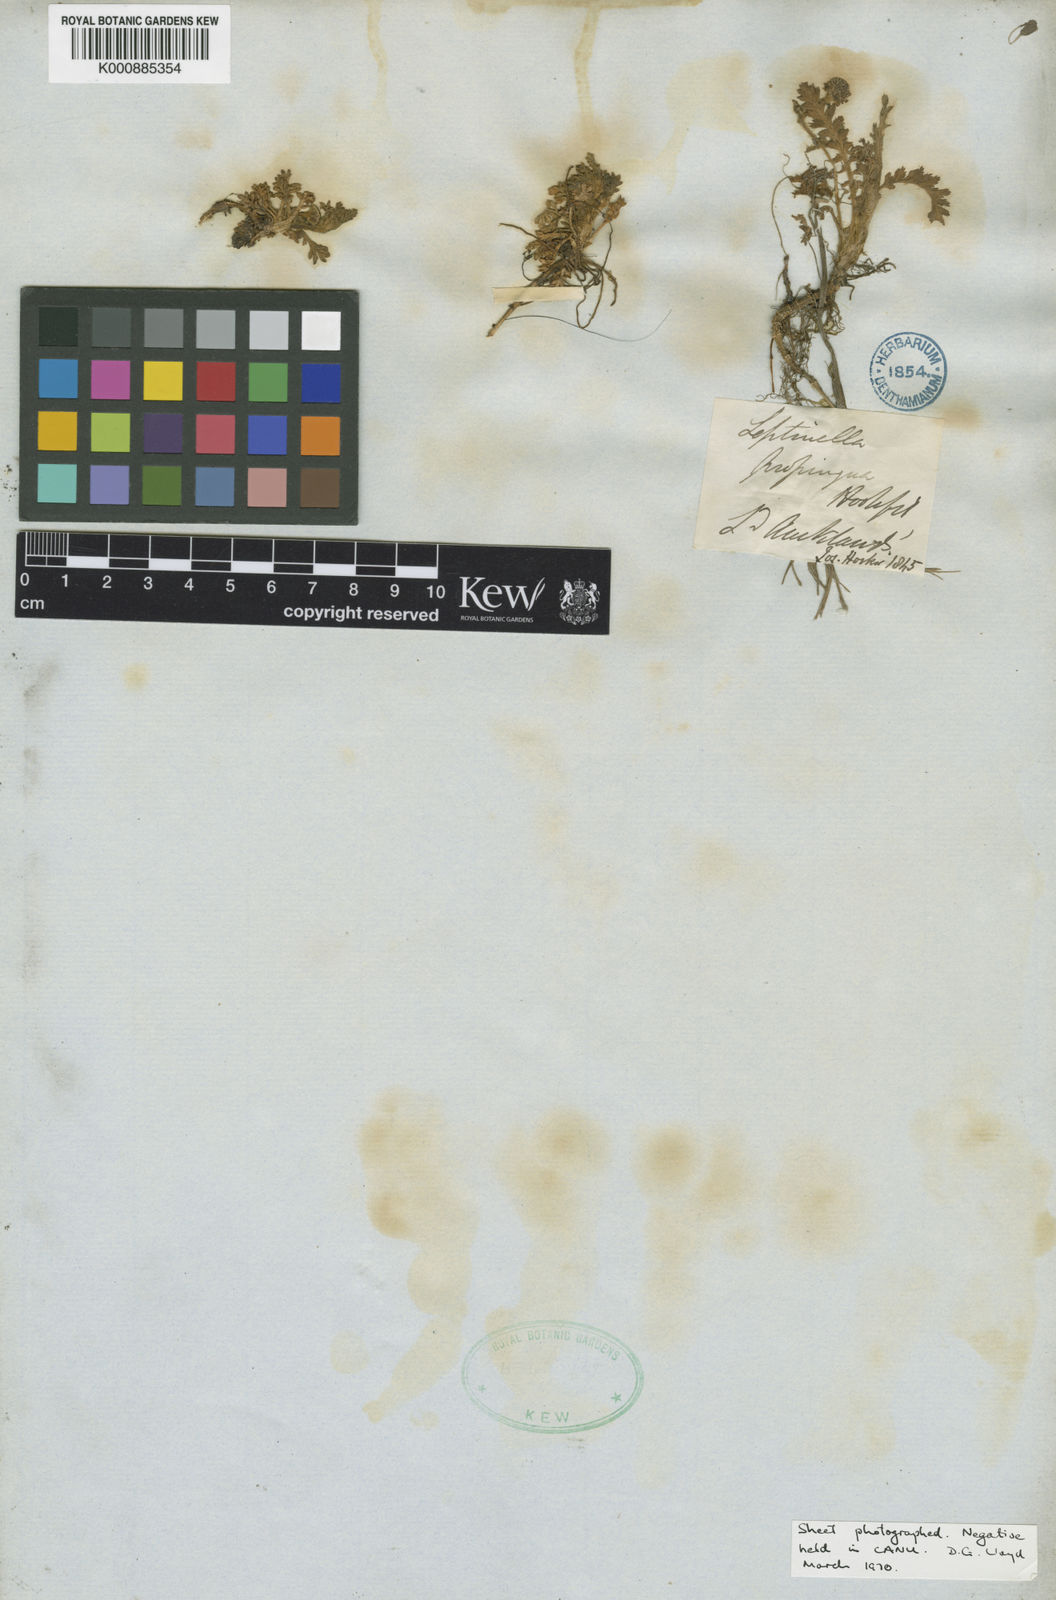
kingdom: Plantae
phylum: Tracheophyta
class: Magnoliopsida
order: Asterales
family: Asteraceae
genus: Leptinella
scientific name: Leptinella lanata
